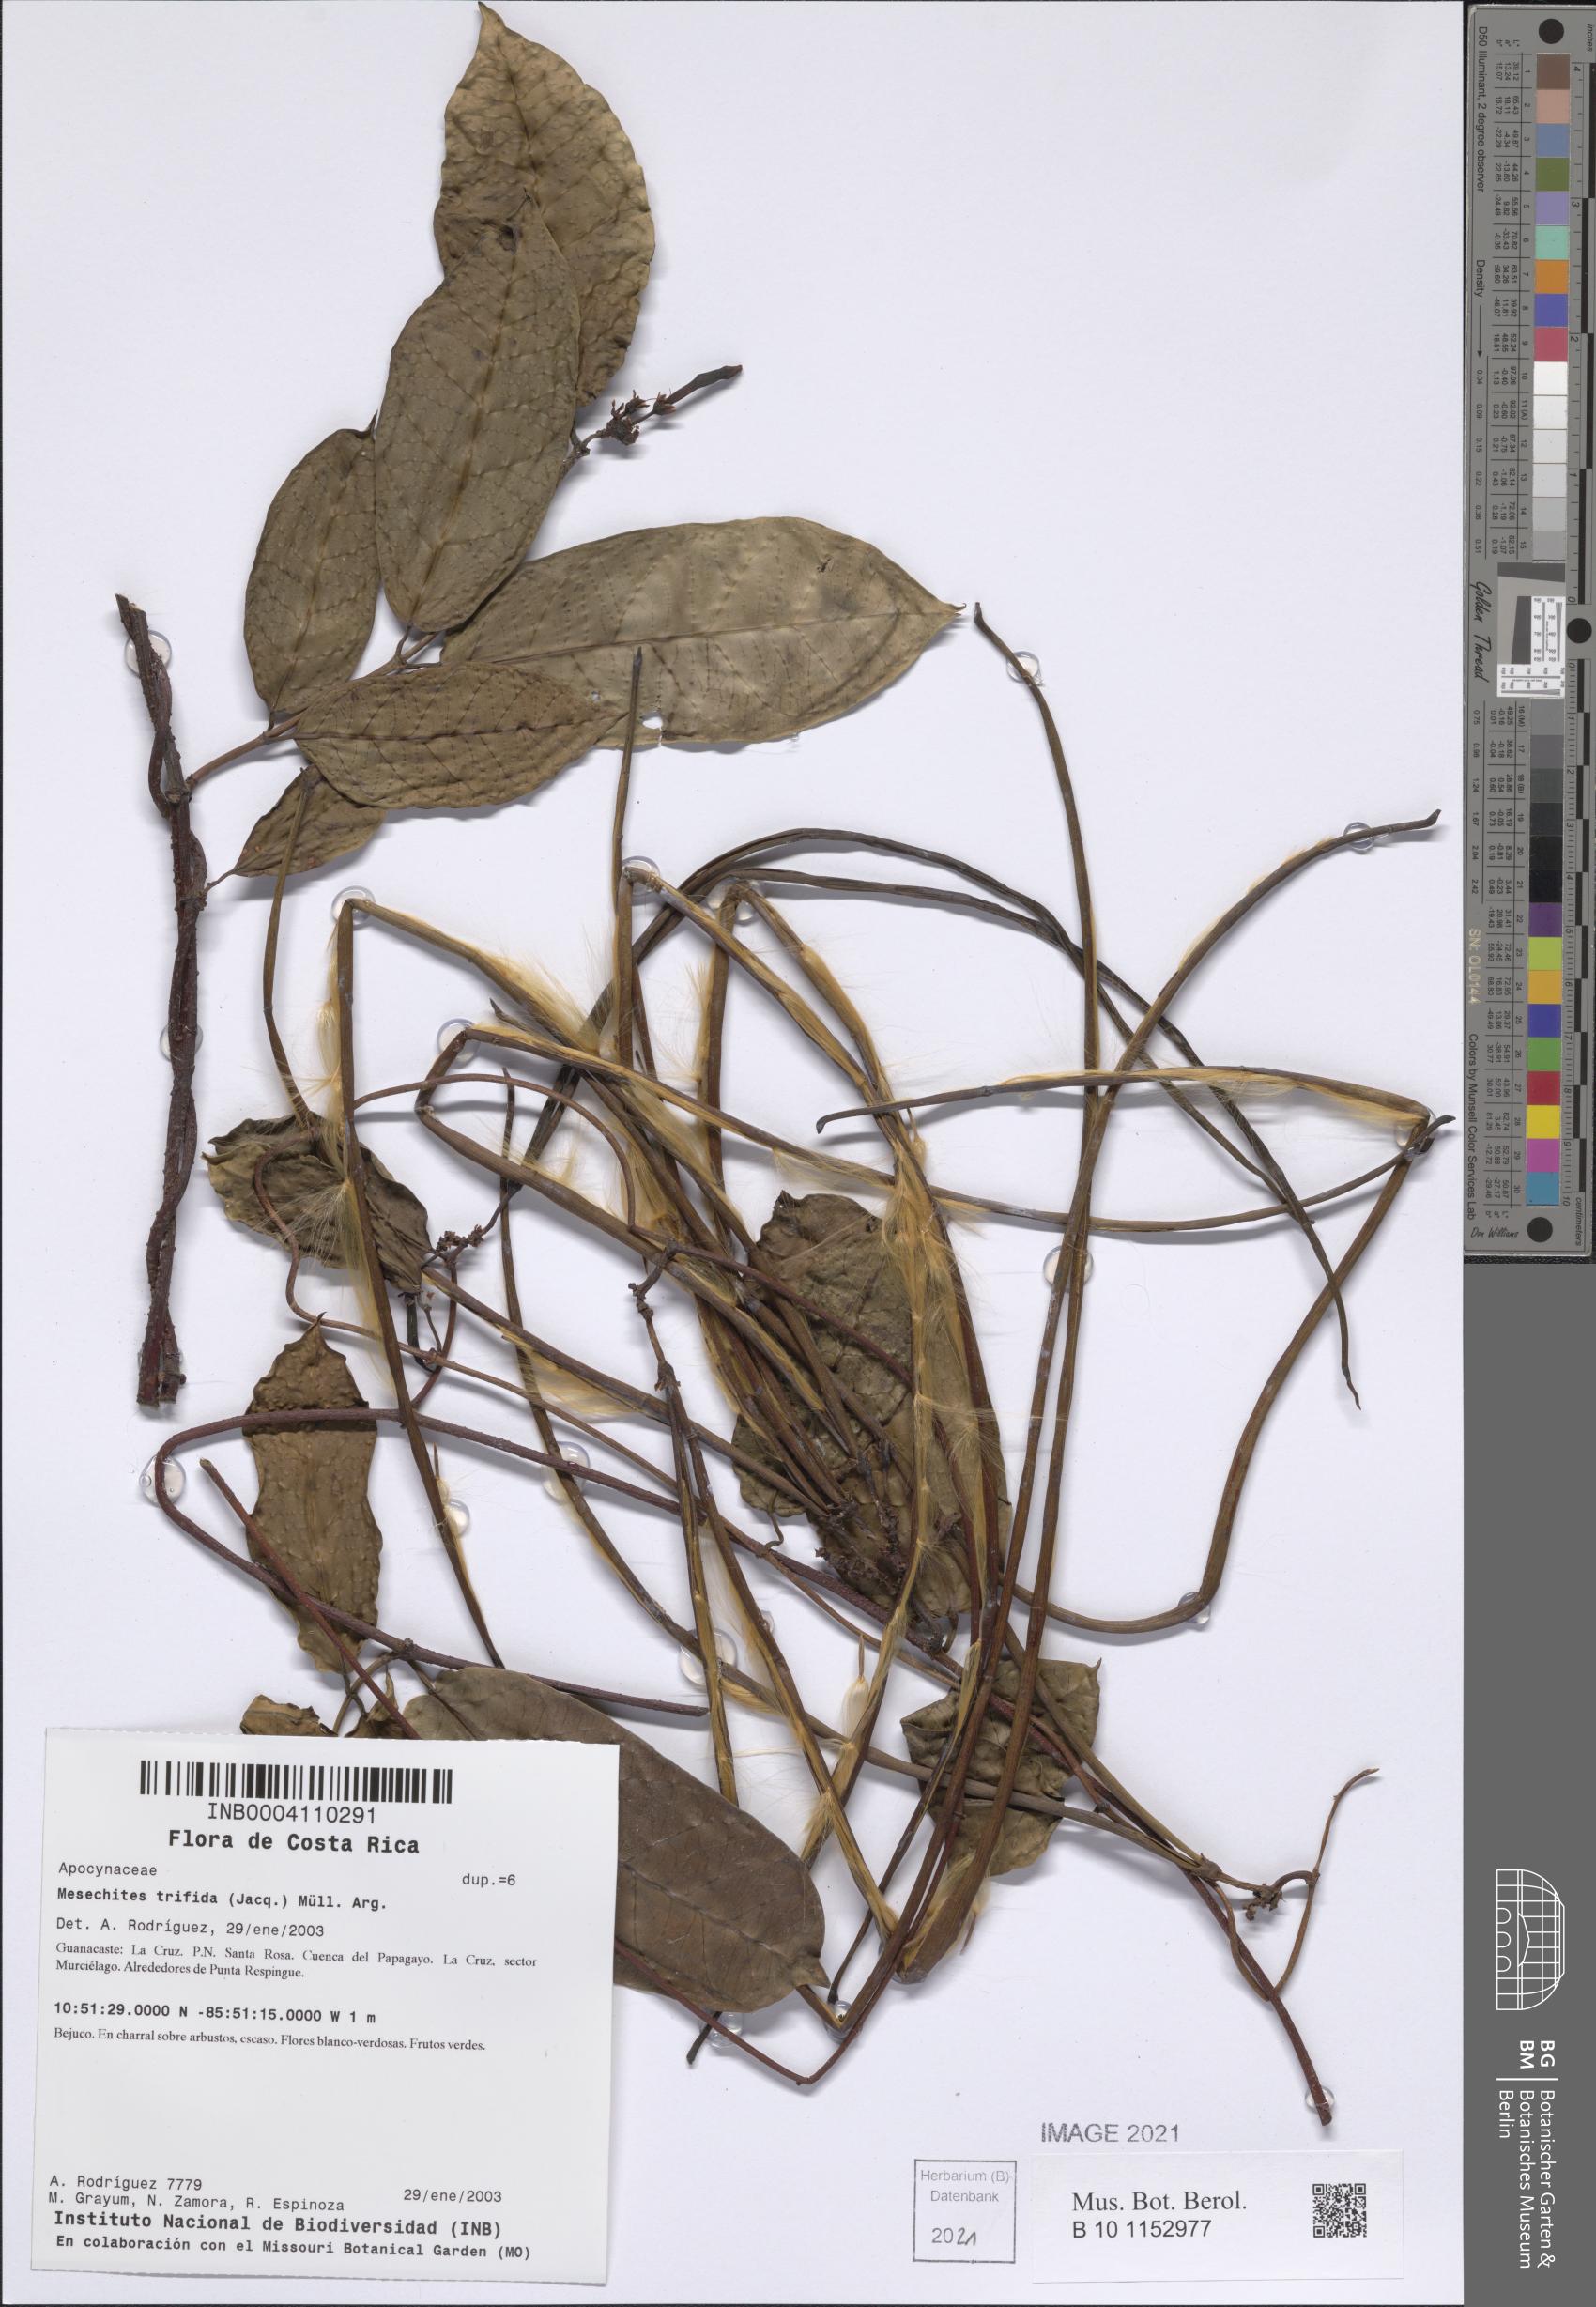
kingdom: Plantae
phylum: Tracheophyta
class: Magnoliopsida
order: Gentianales
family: Apocynaceae
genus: Mesechites
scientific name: Mesechites trifidus
